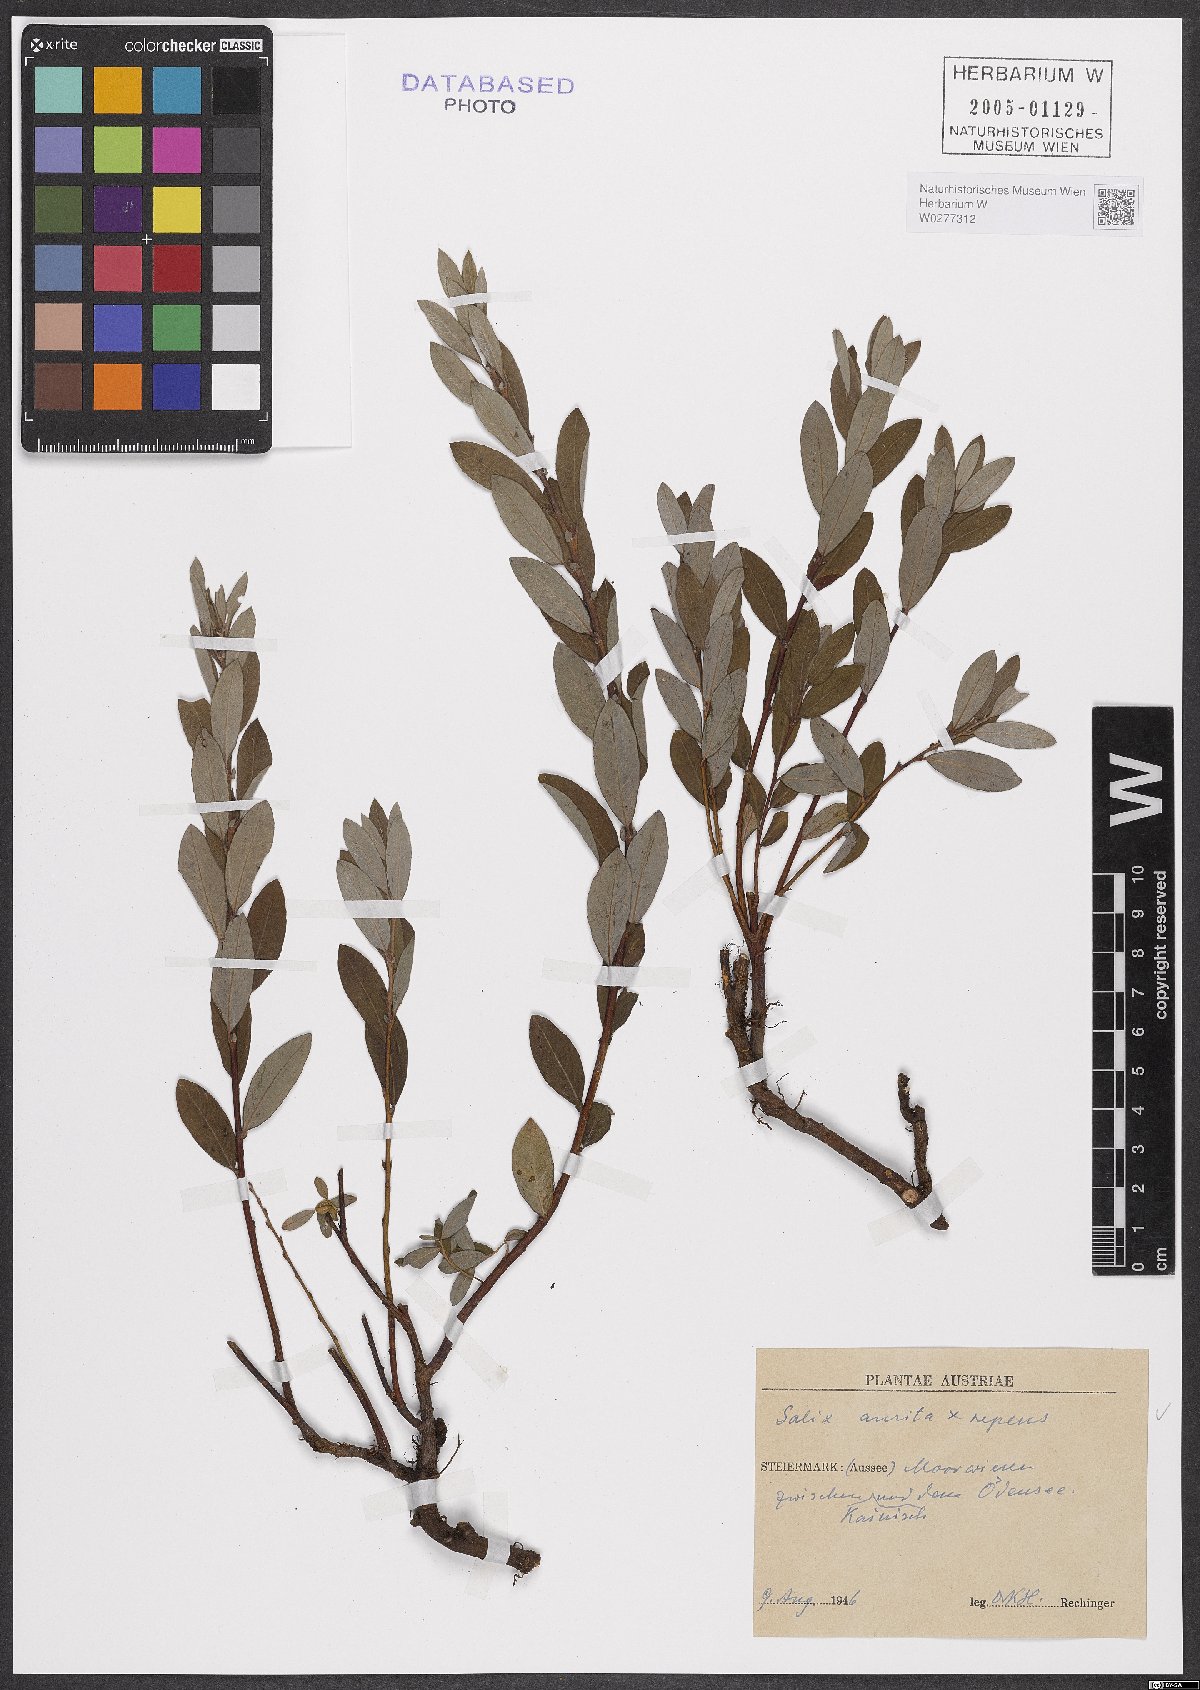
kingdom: Plantae
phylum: Tracheophyta
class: Magnoliopsida
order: Malpighiales
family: Salicaceae
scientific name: Salicaceae
